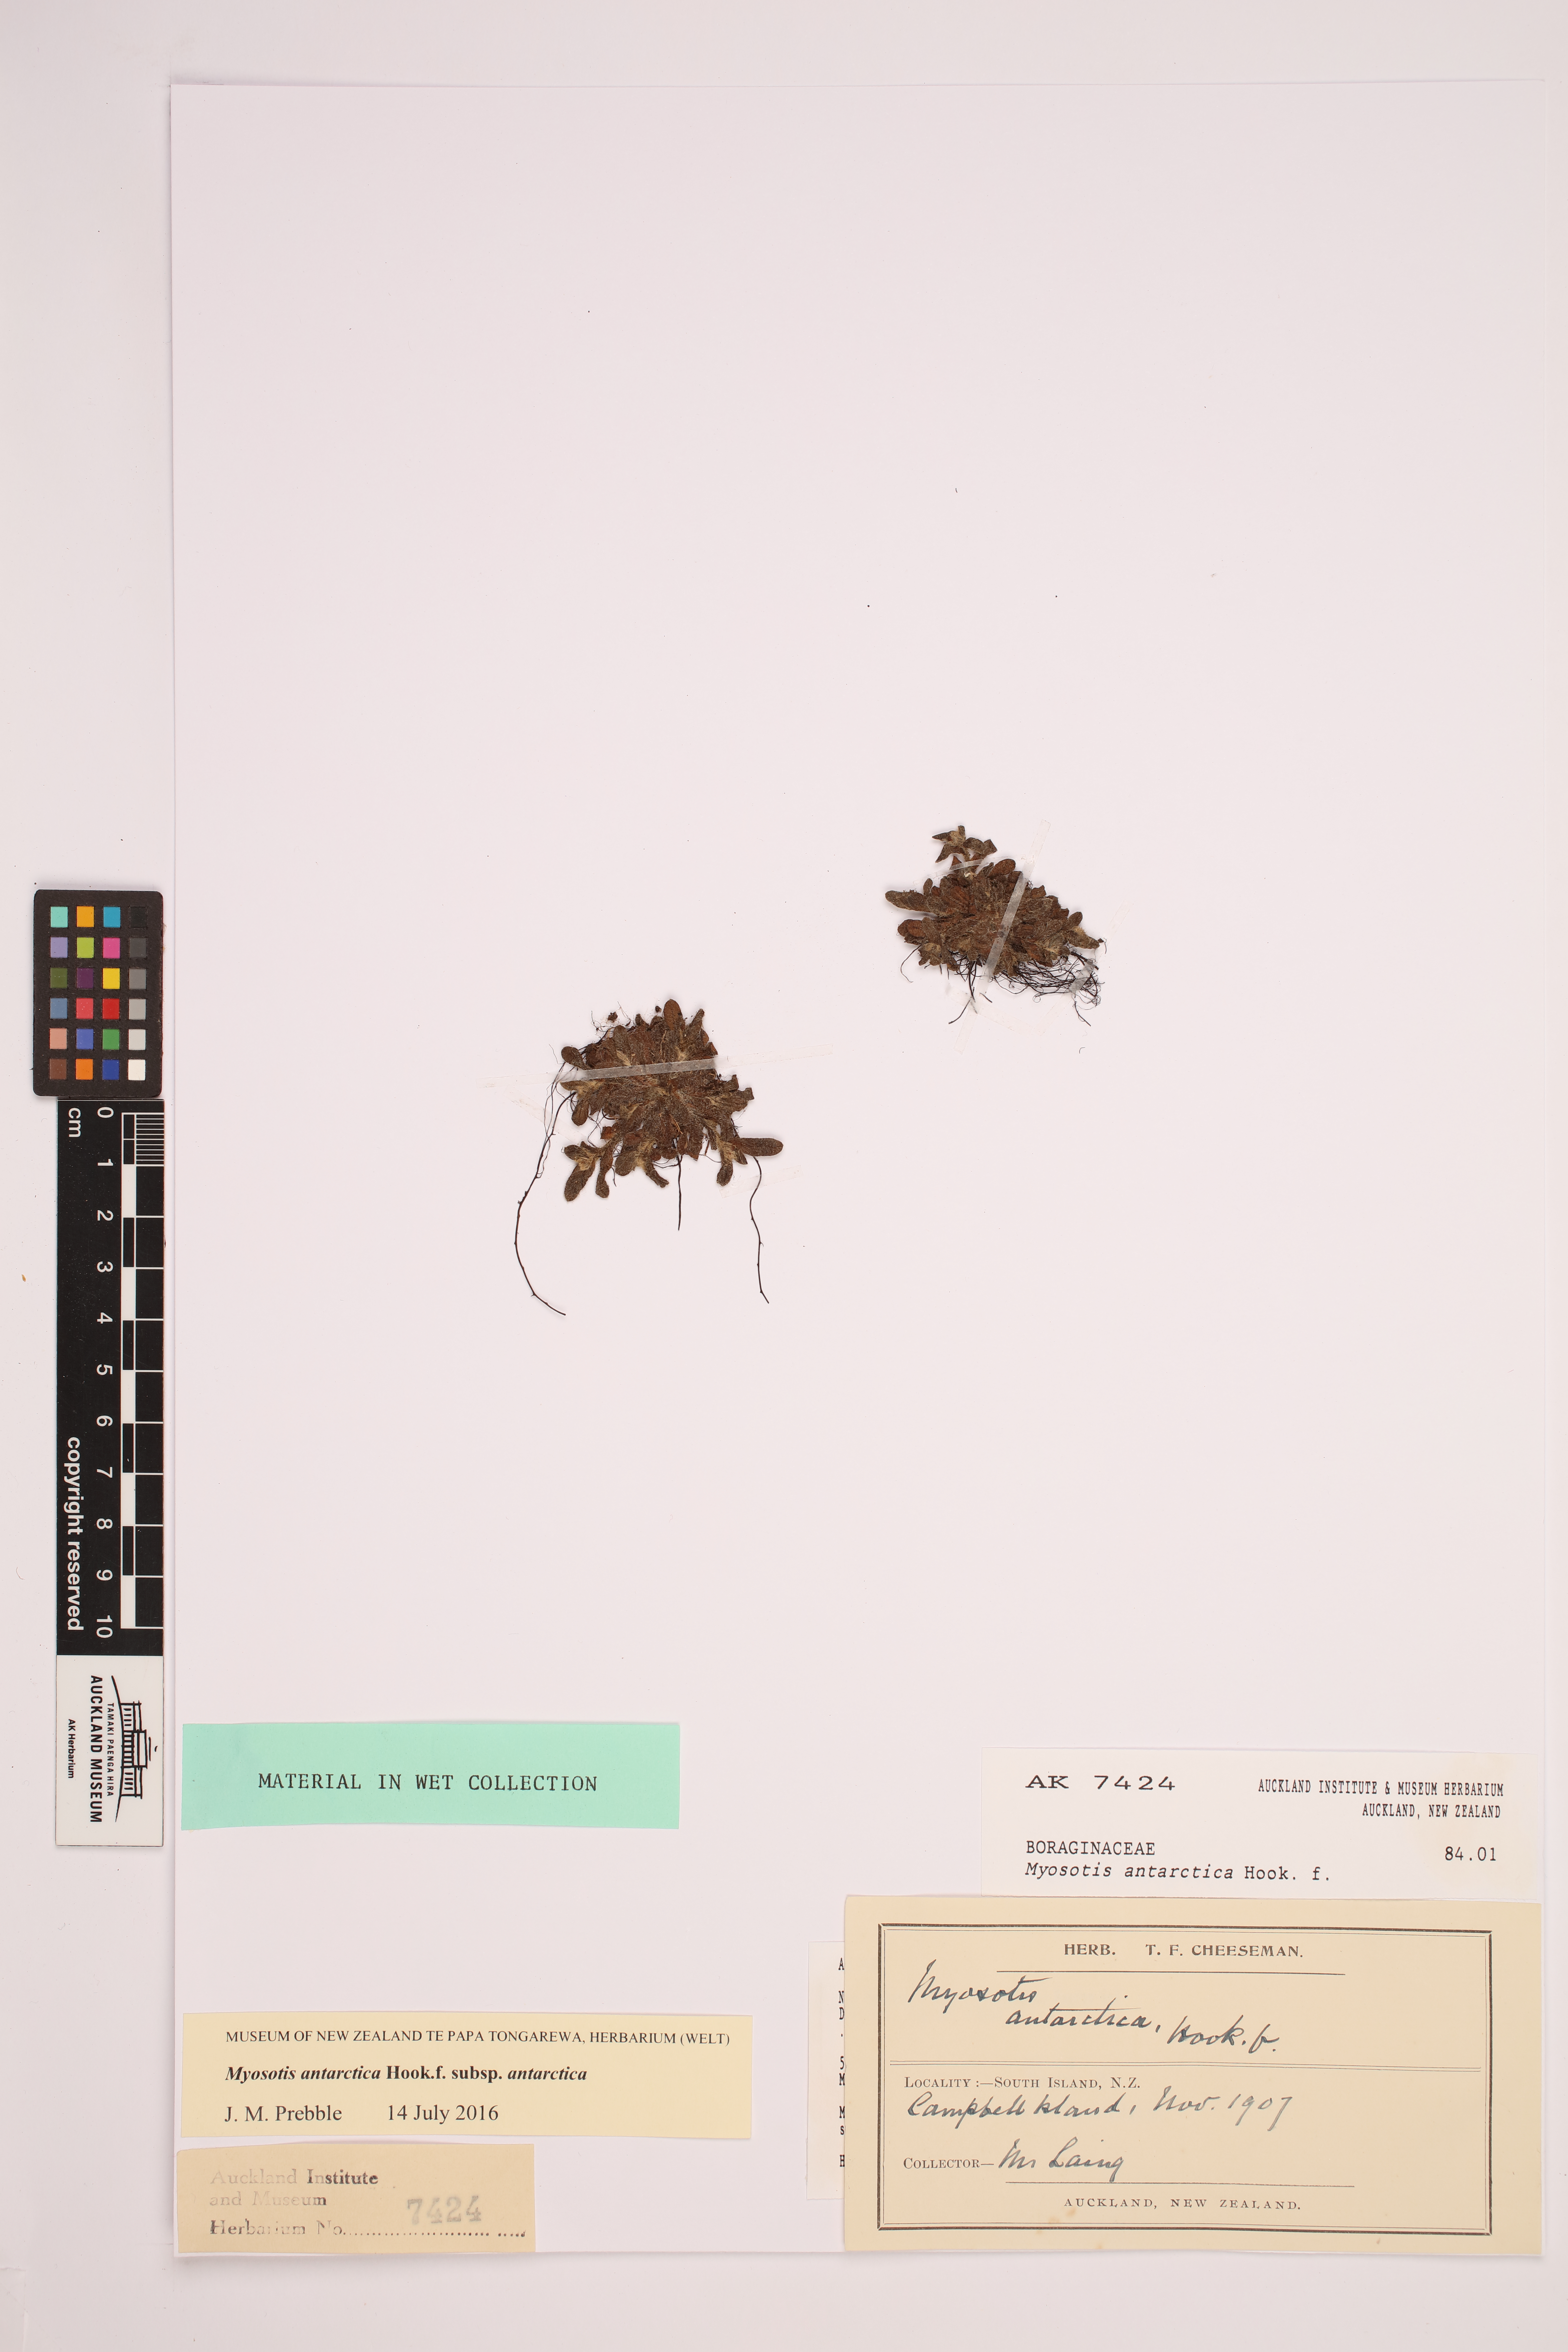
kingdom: Plantae
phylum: Tracheophyta
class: Magnoliopsida
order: Boraginales
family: Boraginaceae
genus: Myosotis
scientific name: Myosotis antarctica
